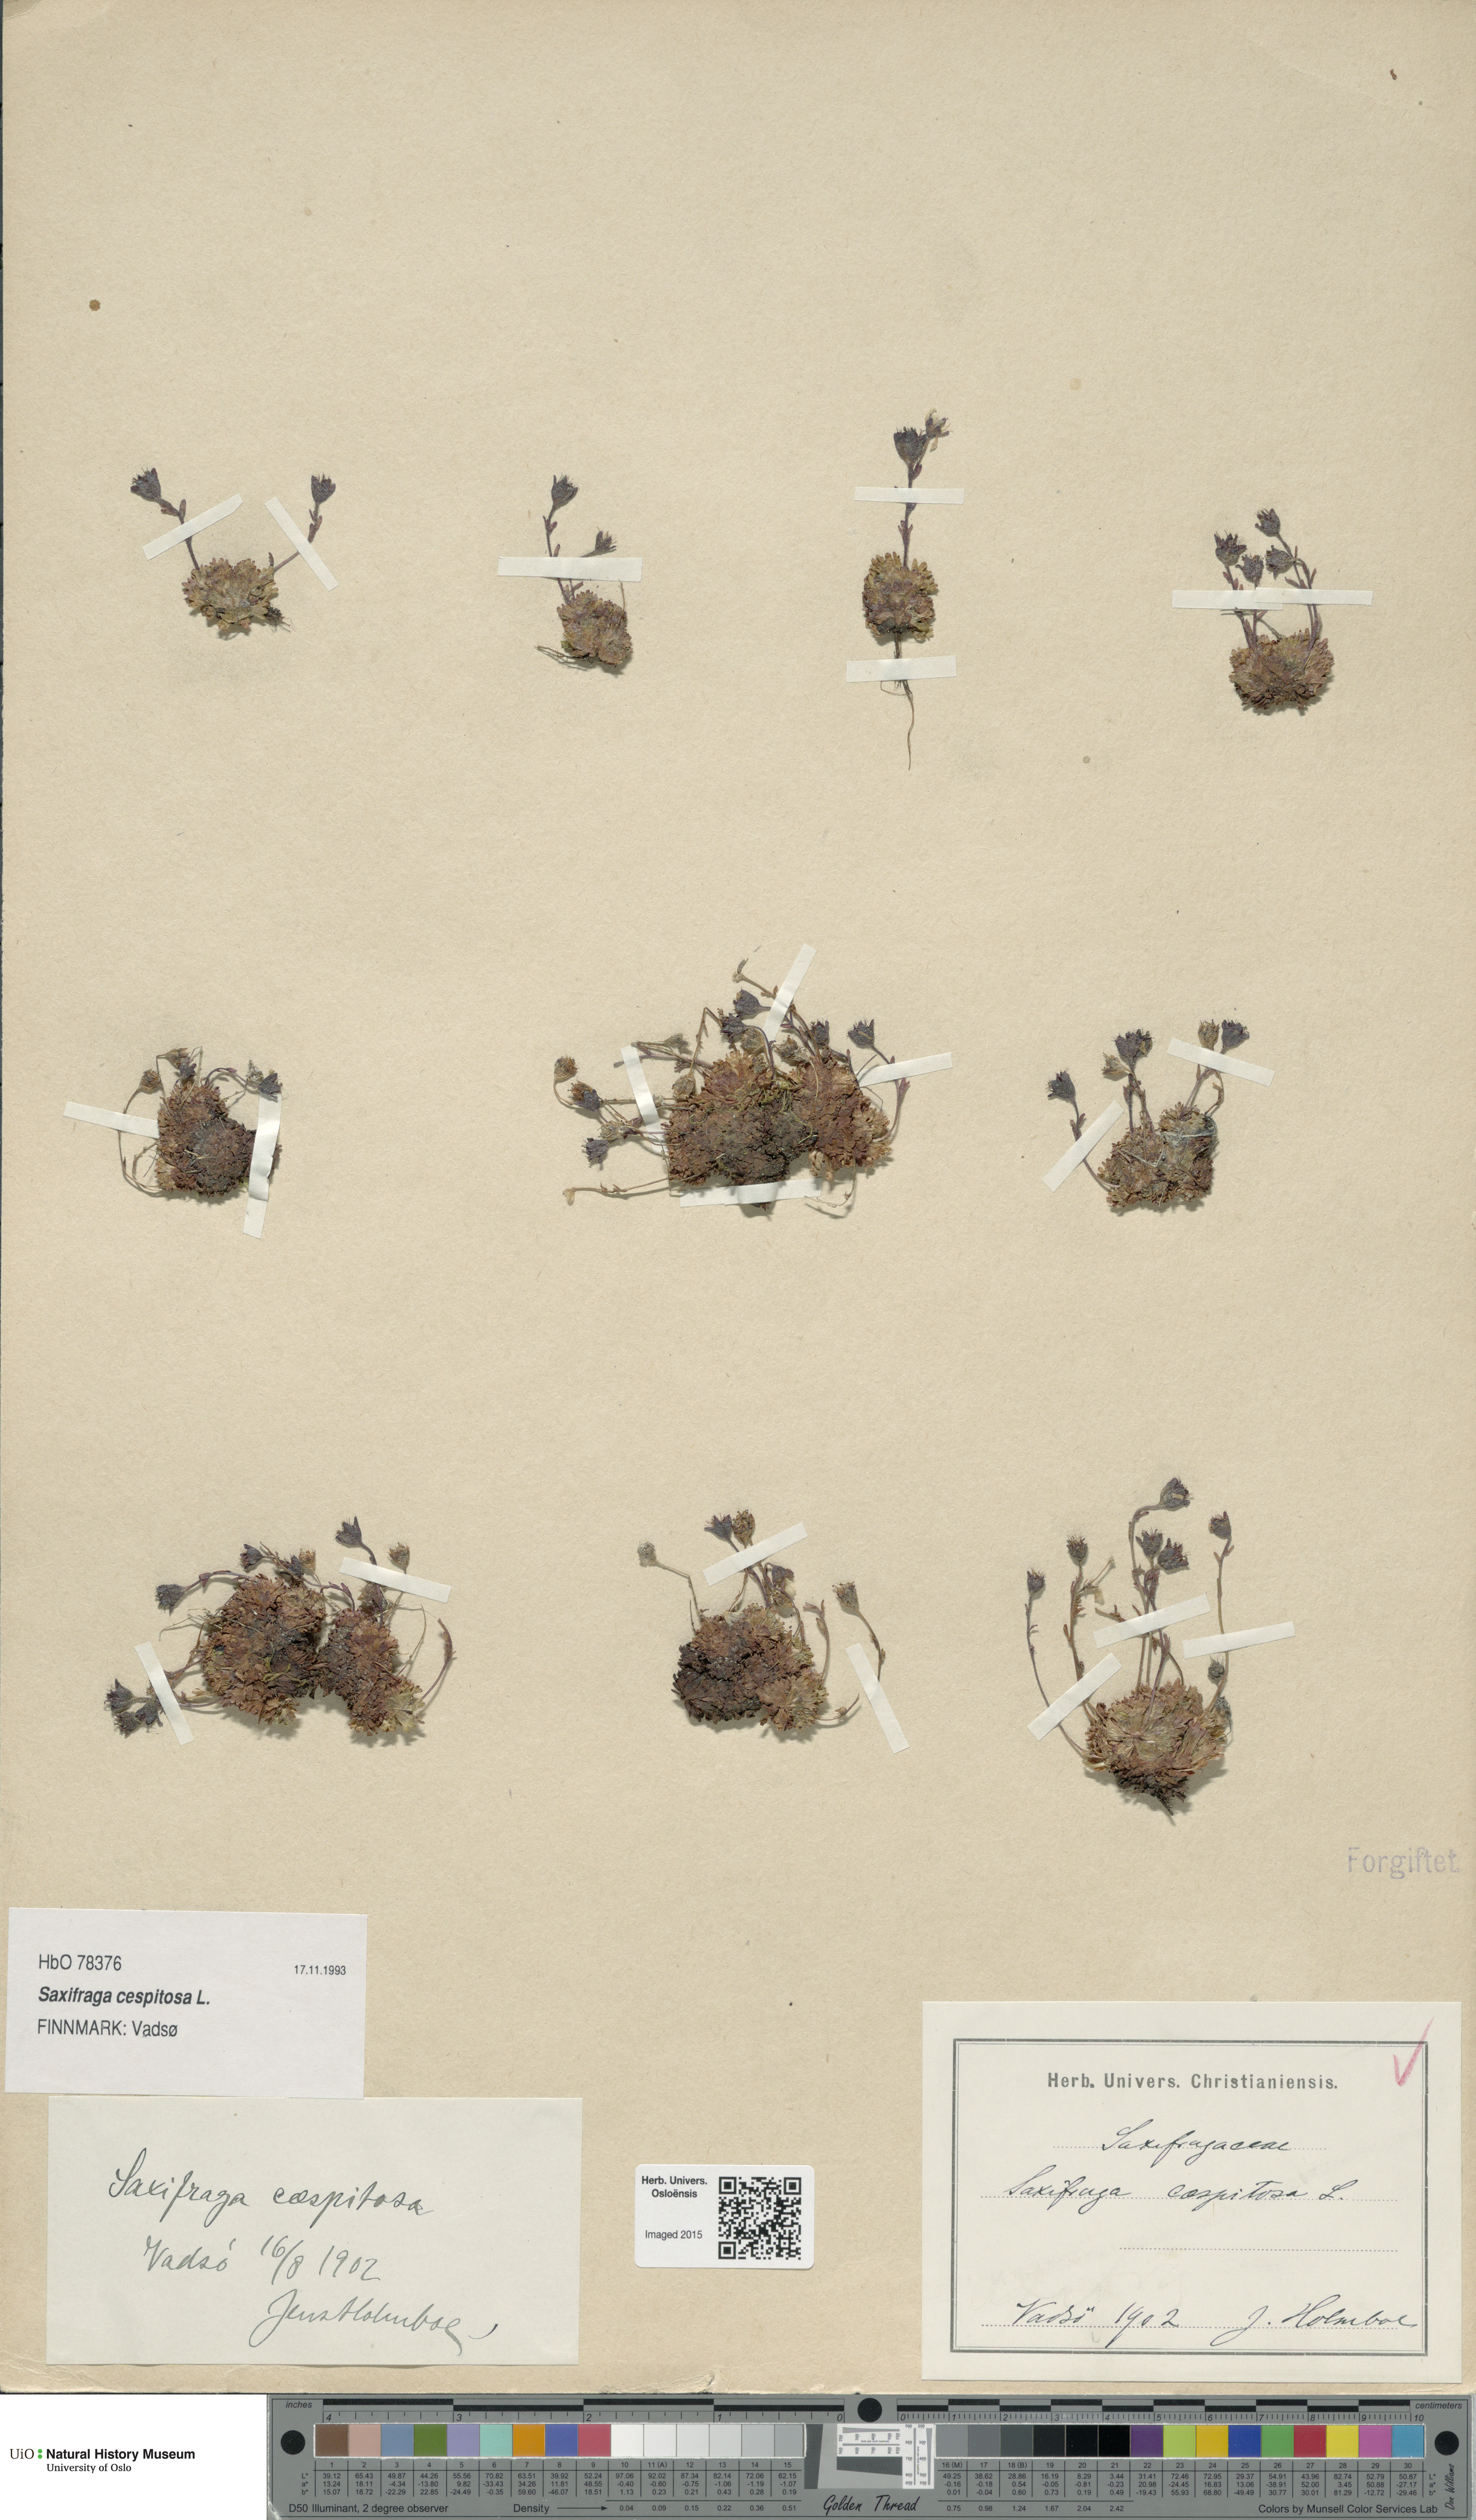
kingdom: Plantae
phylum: Tracheophyta
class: Magnoliopsida
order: Saxifragales
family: Saxifragaceae
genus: Saxifraga
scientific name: Saxifraga cespitosa
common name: Tufted saxifrage
